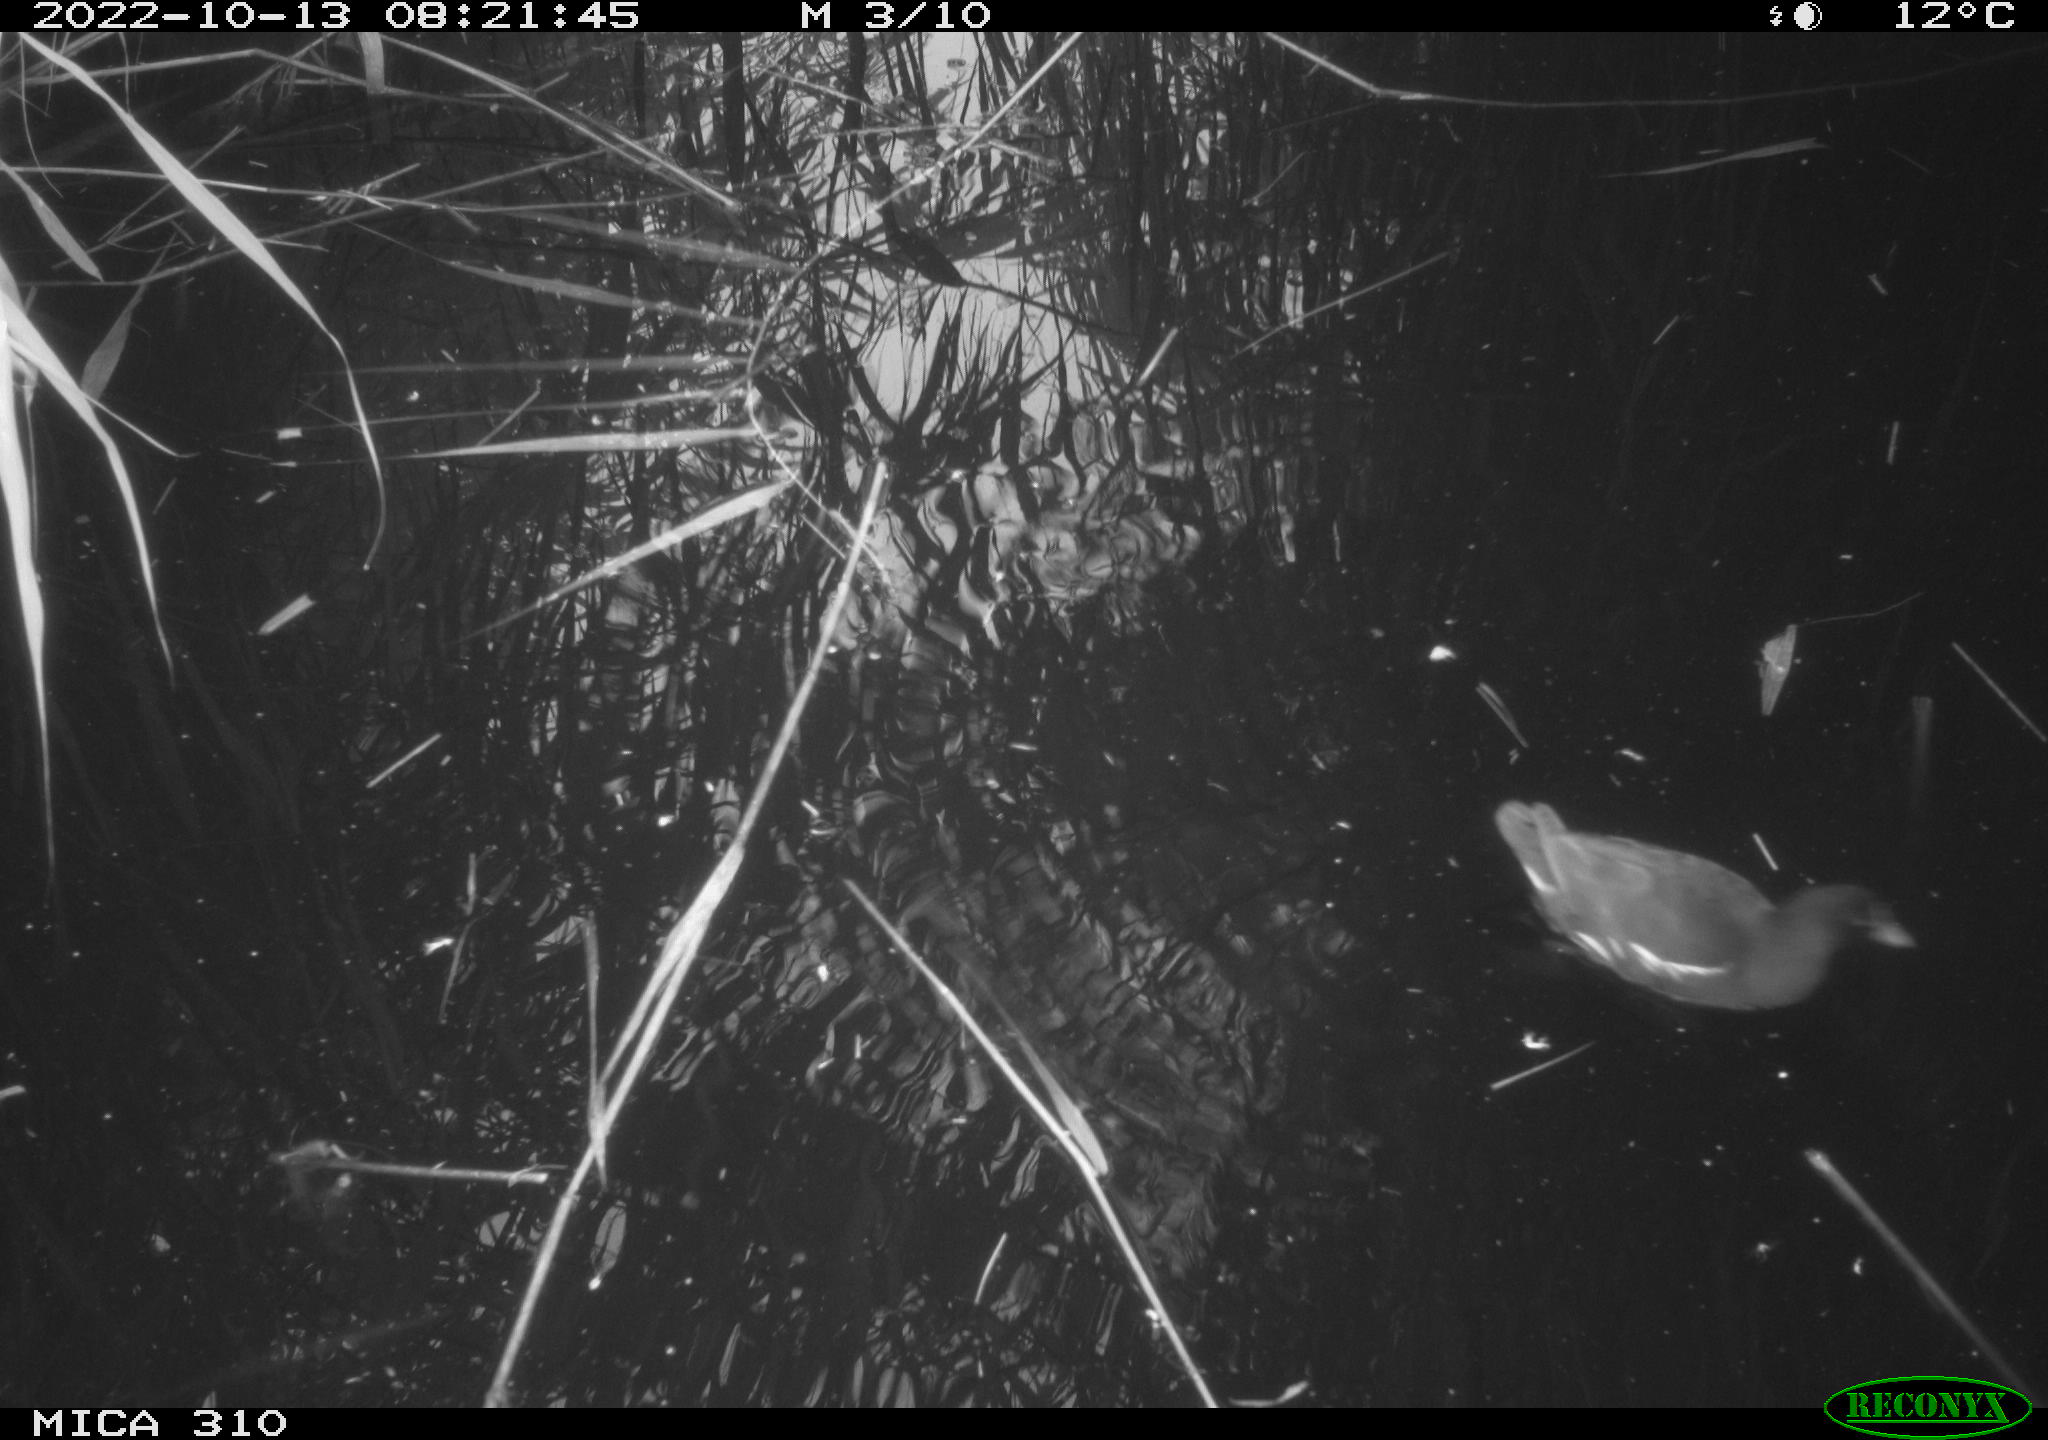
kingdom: Animalia
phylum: Chordata
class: Aves
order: Gruiformes
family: Rallidae
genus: Gallinula
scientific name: Gallinula chloropus
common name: Common moorhen
